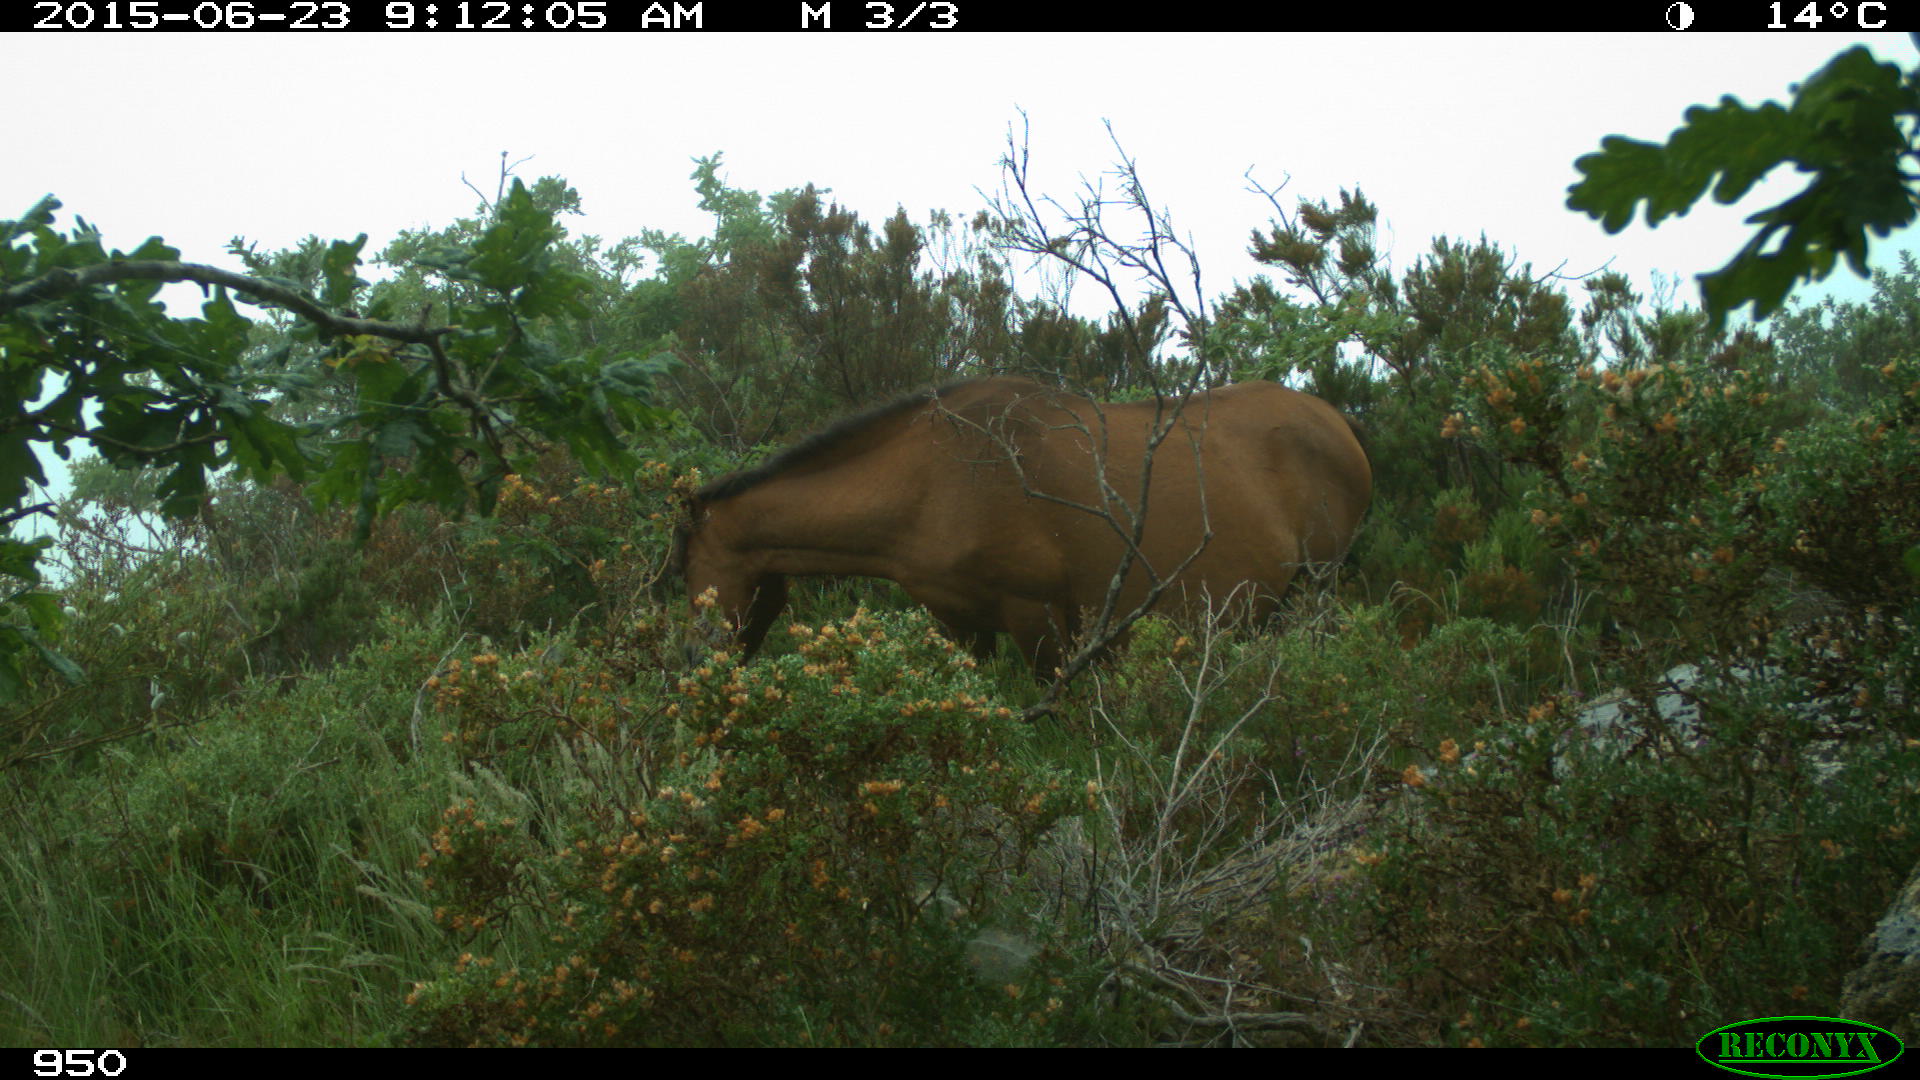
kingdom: Animalia
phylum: Chordata
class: Mammalia
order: Perissodactyla
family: Equidae
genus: Equus
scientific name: Equus caballus
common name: Horse
